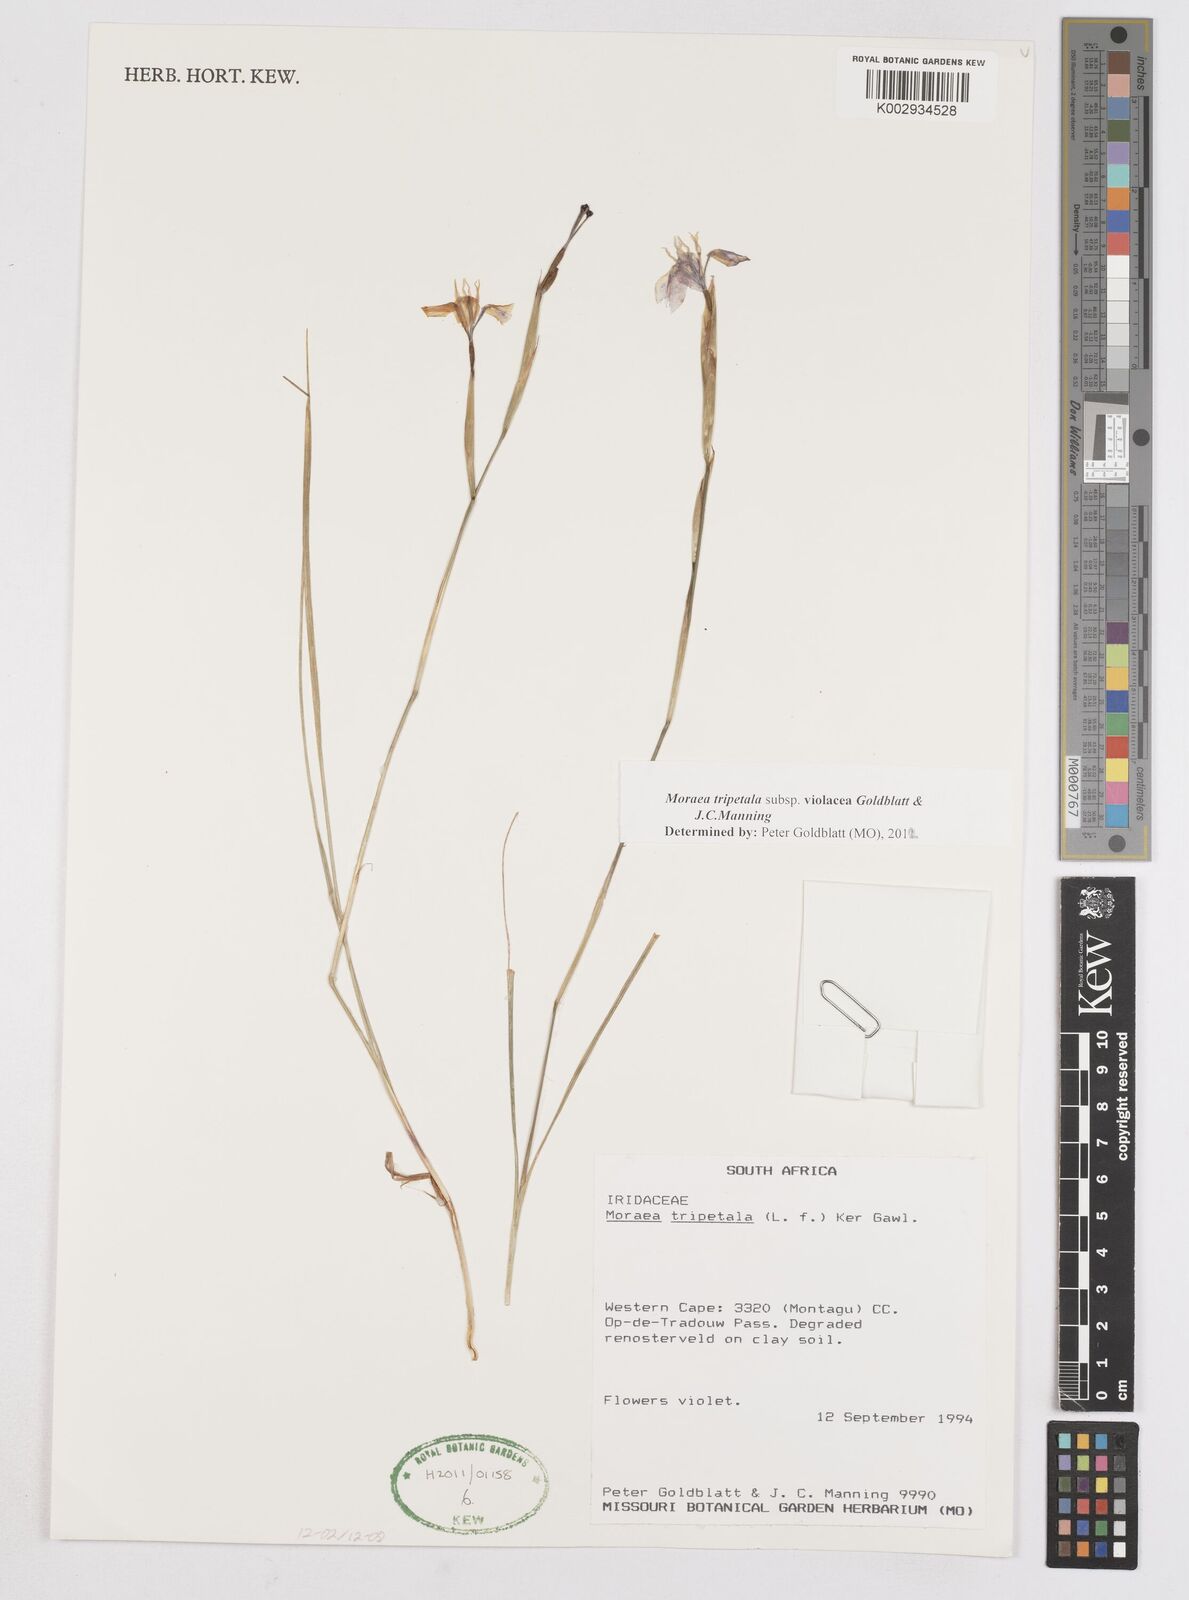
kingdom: Plantae
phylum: Tracheophyta
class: Liliopsida
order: Asparagales
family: Iridaceae
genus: Moraea
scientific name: Moraea tripetala
